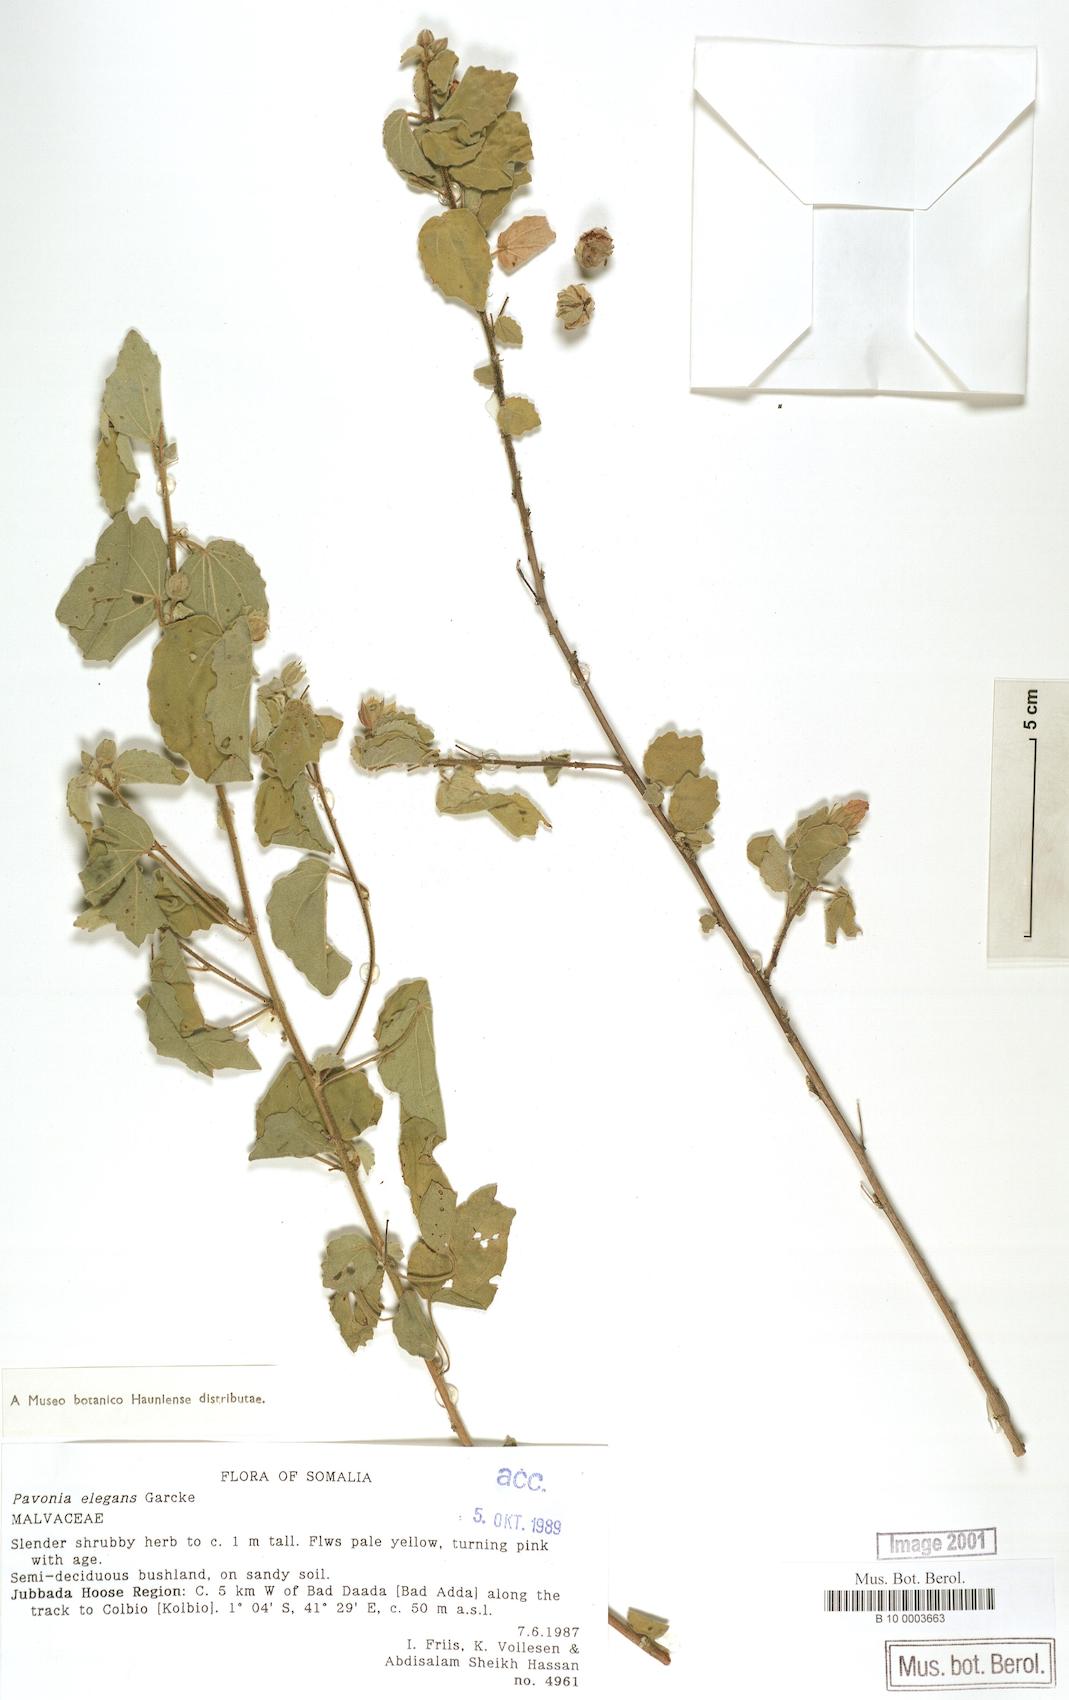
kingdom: Plantae
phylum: Tracheophyta
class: Magnoliopsida
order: Malvales
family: Malvaceae
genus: Pavonia
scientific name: Pavonia elegans
